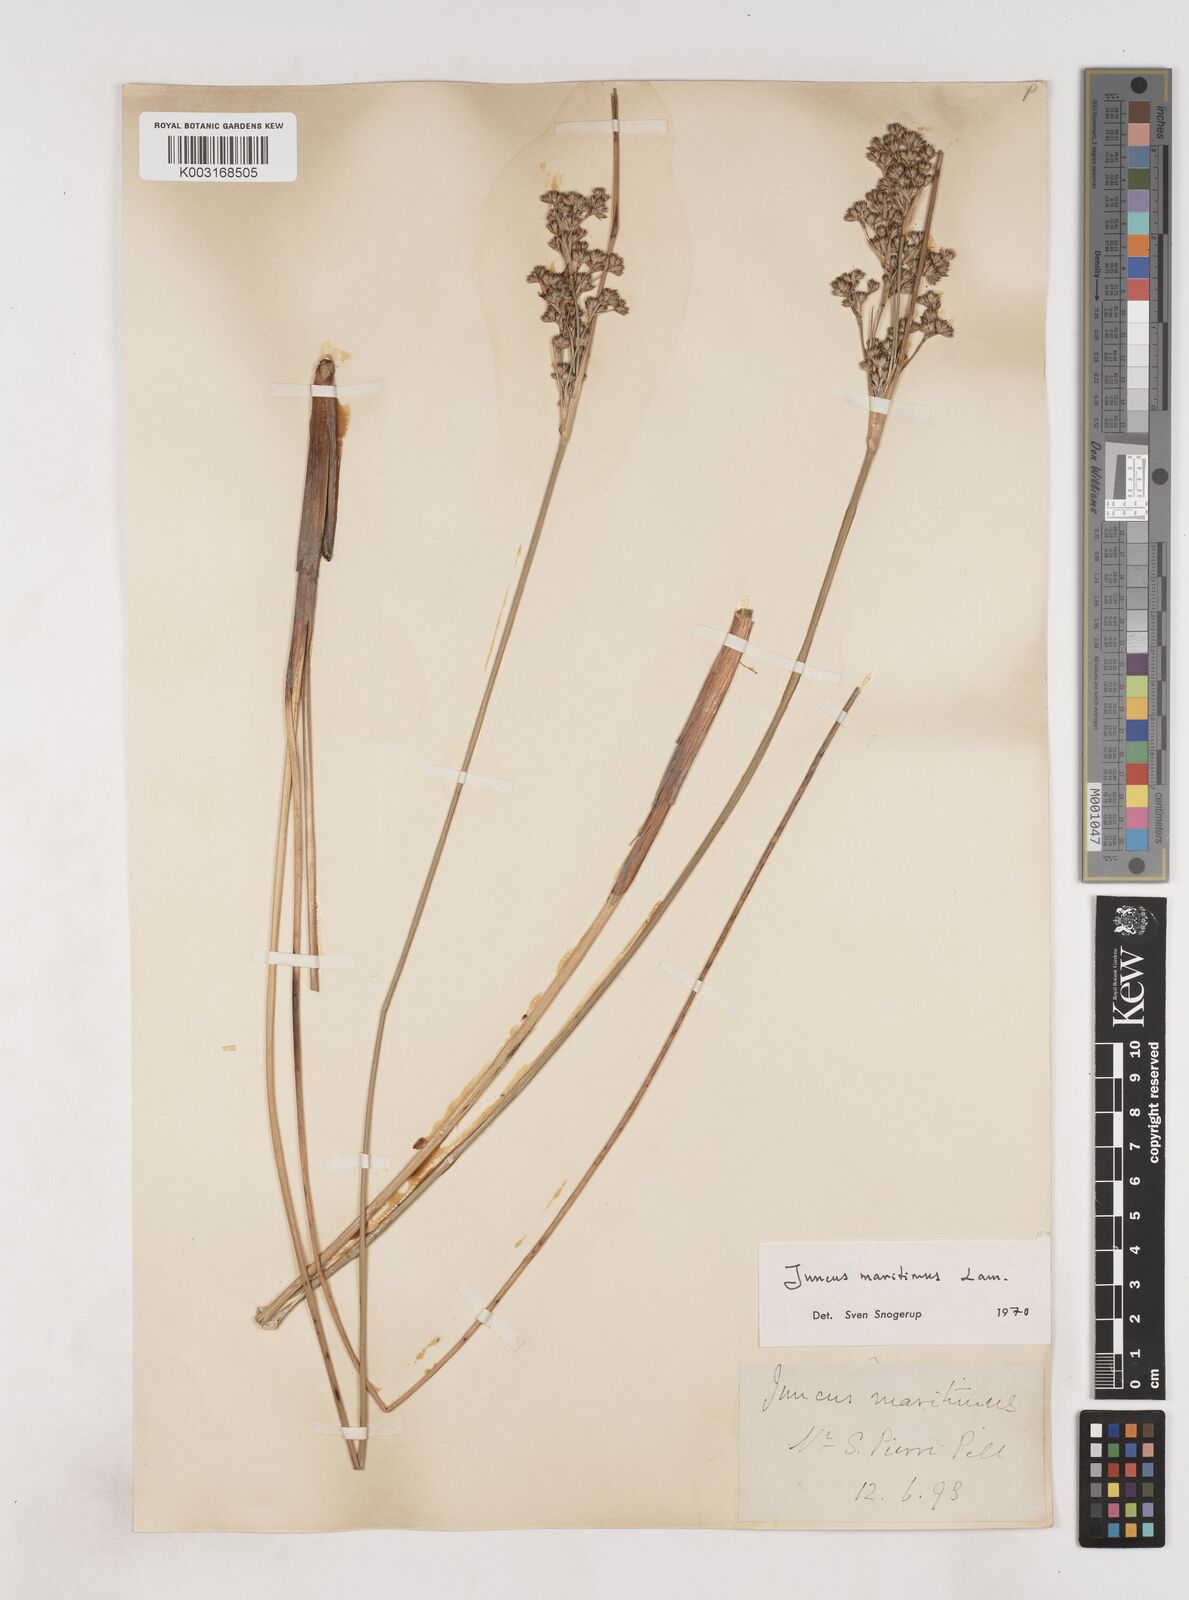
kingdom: Plantae
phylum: Tracheophyta
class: Liliopsida
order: Poales
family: Juncaceae
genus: Juncus
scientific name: Juncus maritimus
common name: Sea rush
